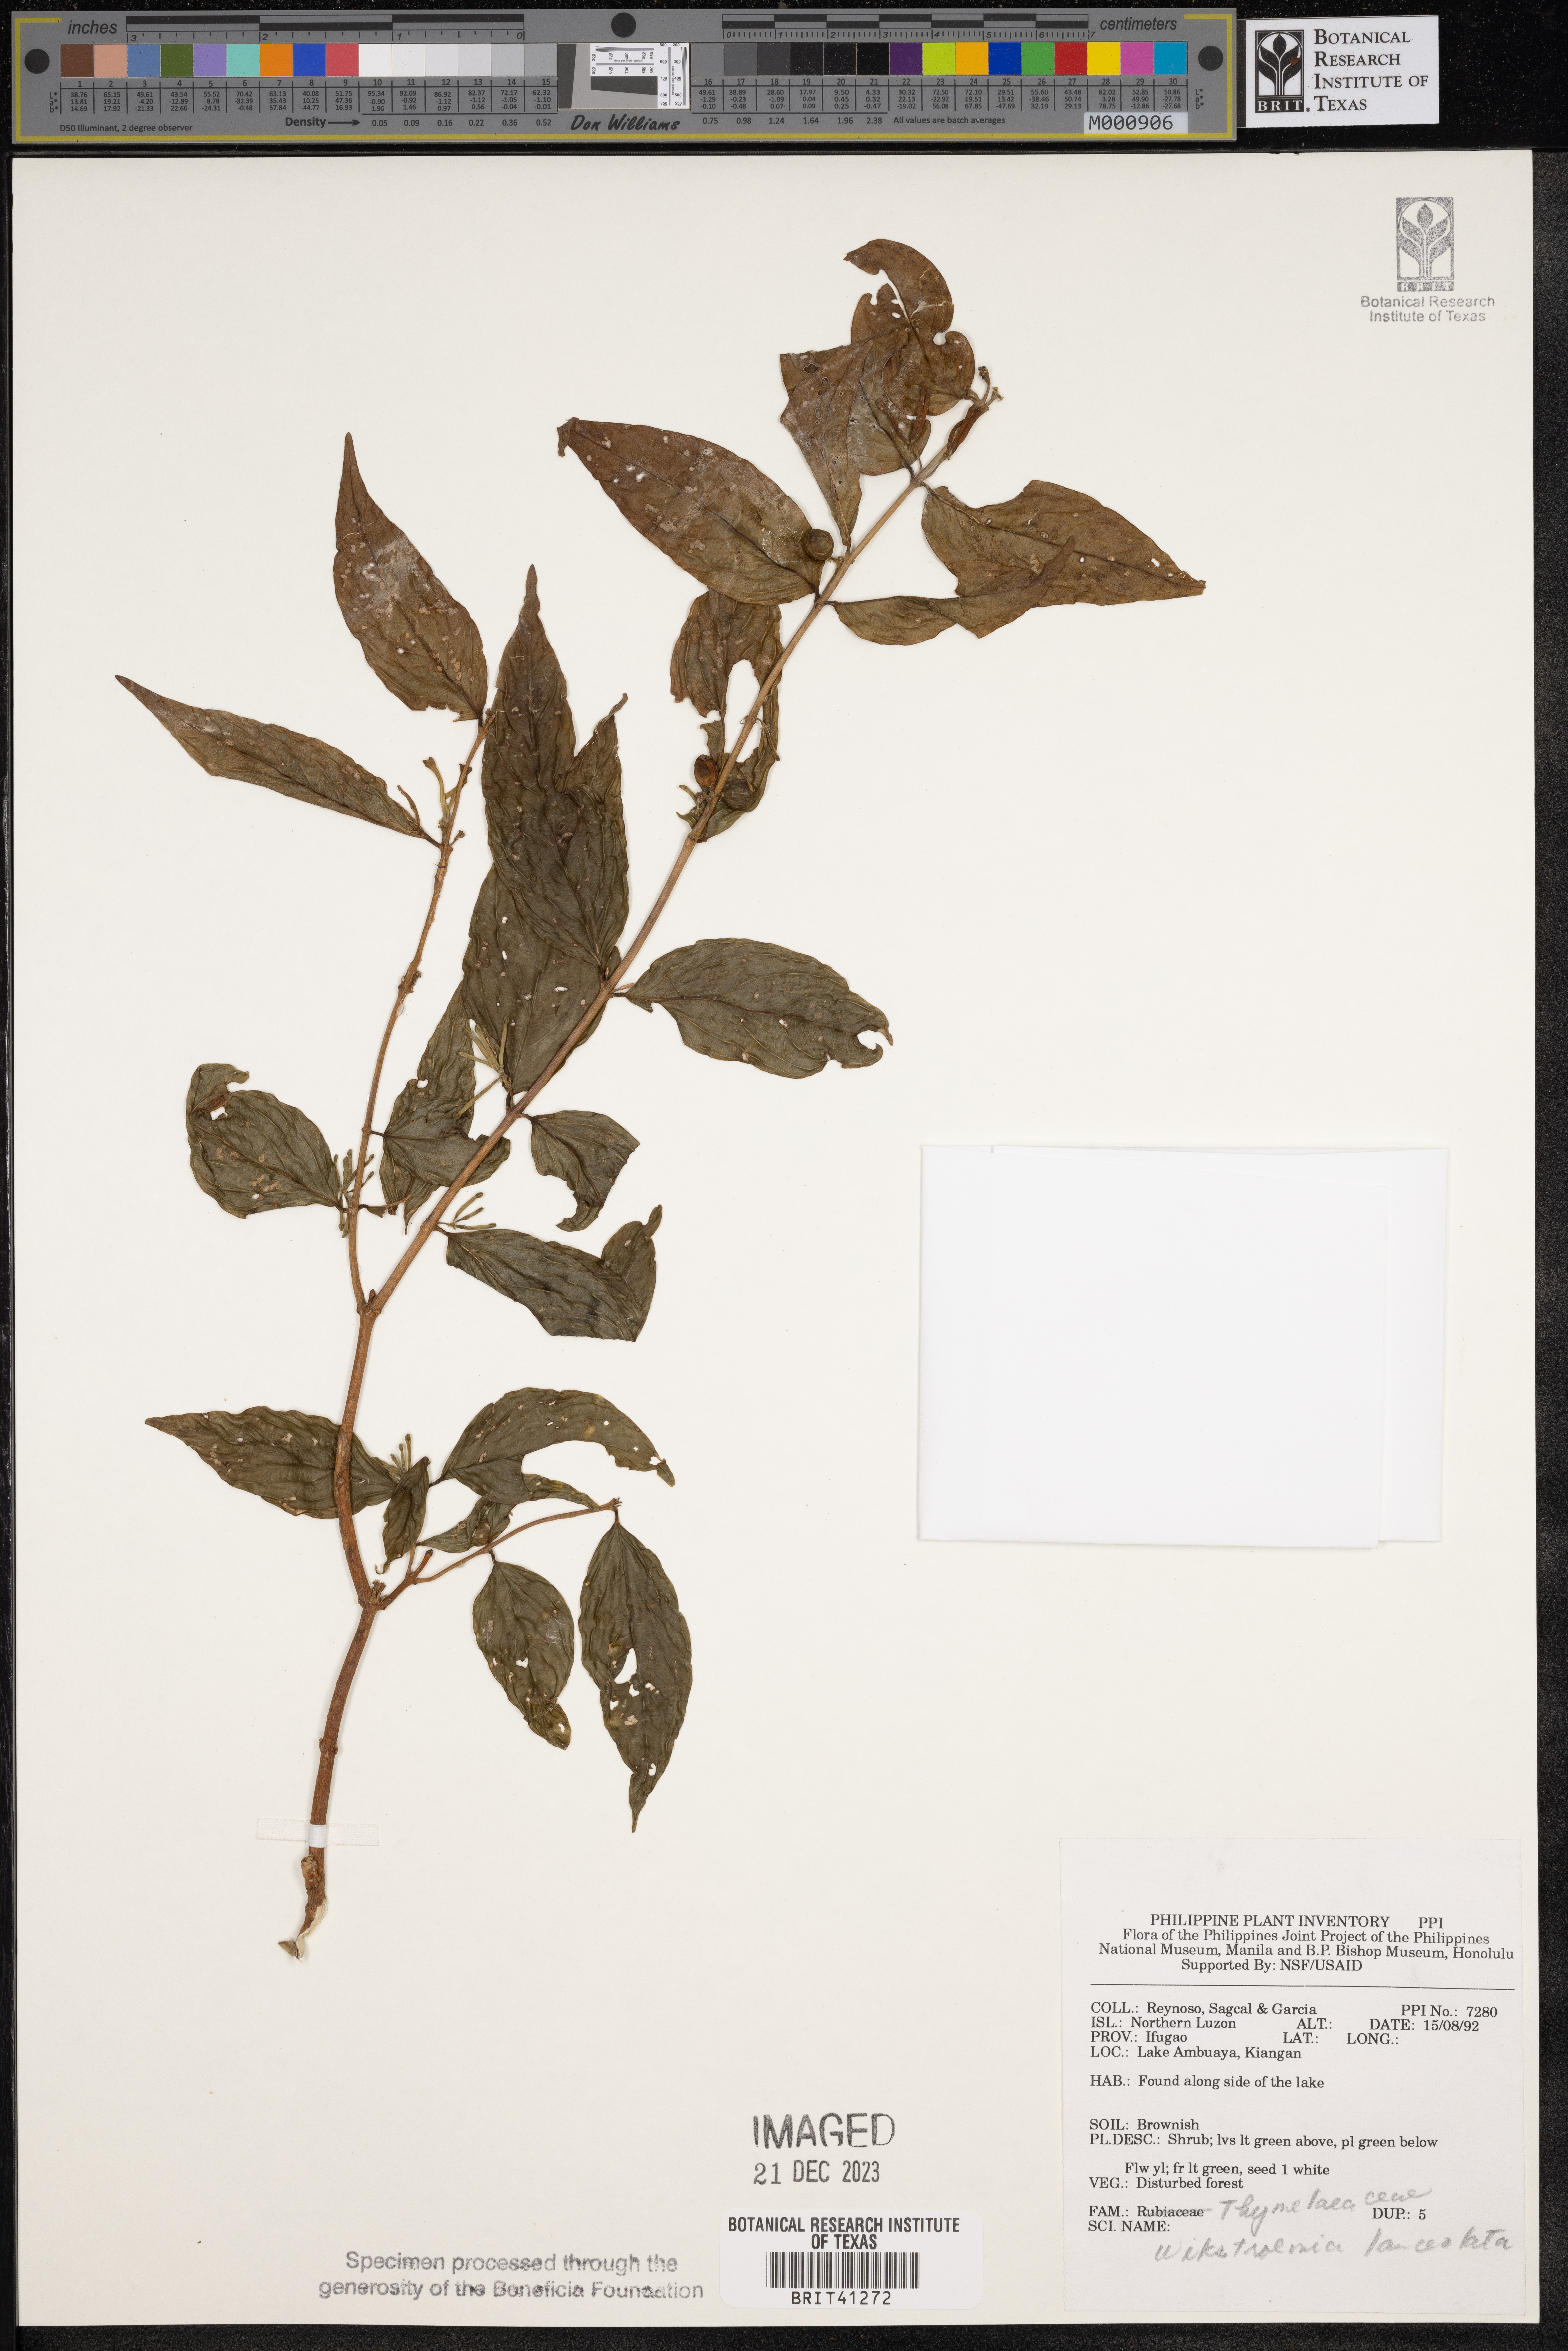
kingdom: Plantae
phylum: Tracheophyta
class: Magnoliopsida
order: Malvales
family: Thymelaeaceae
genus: Wikstroemia
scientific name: Wikstroemia lanceolata
